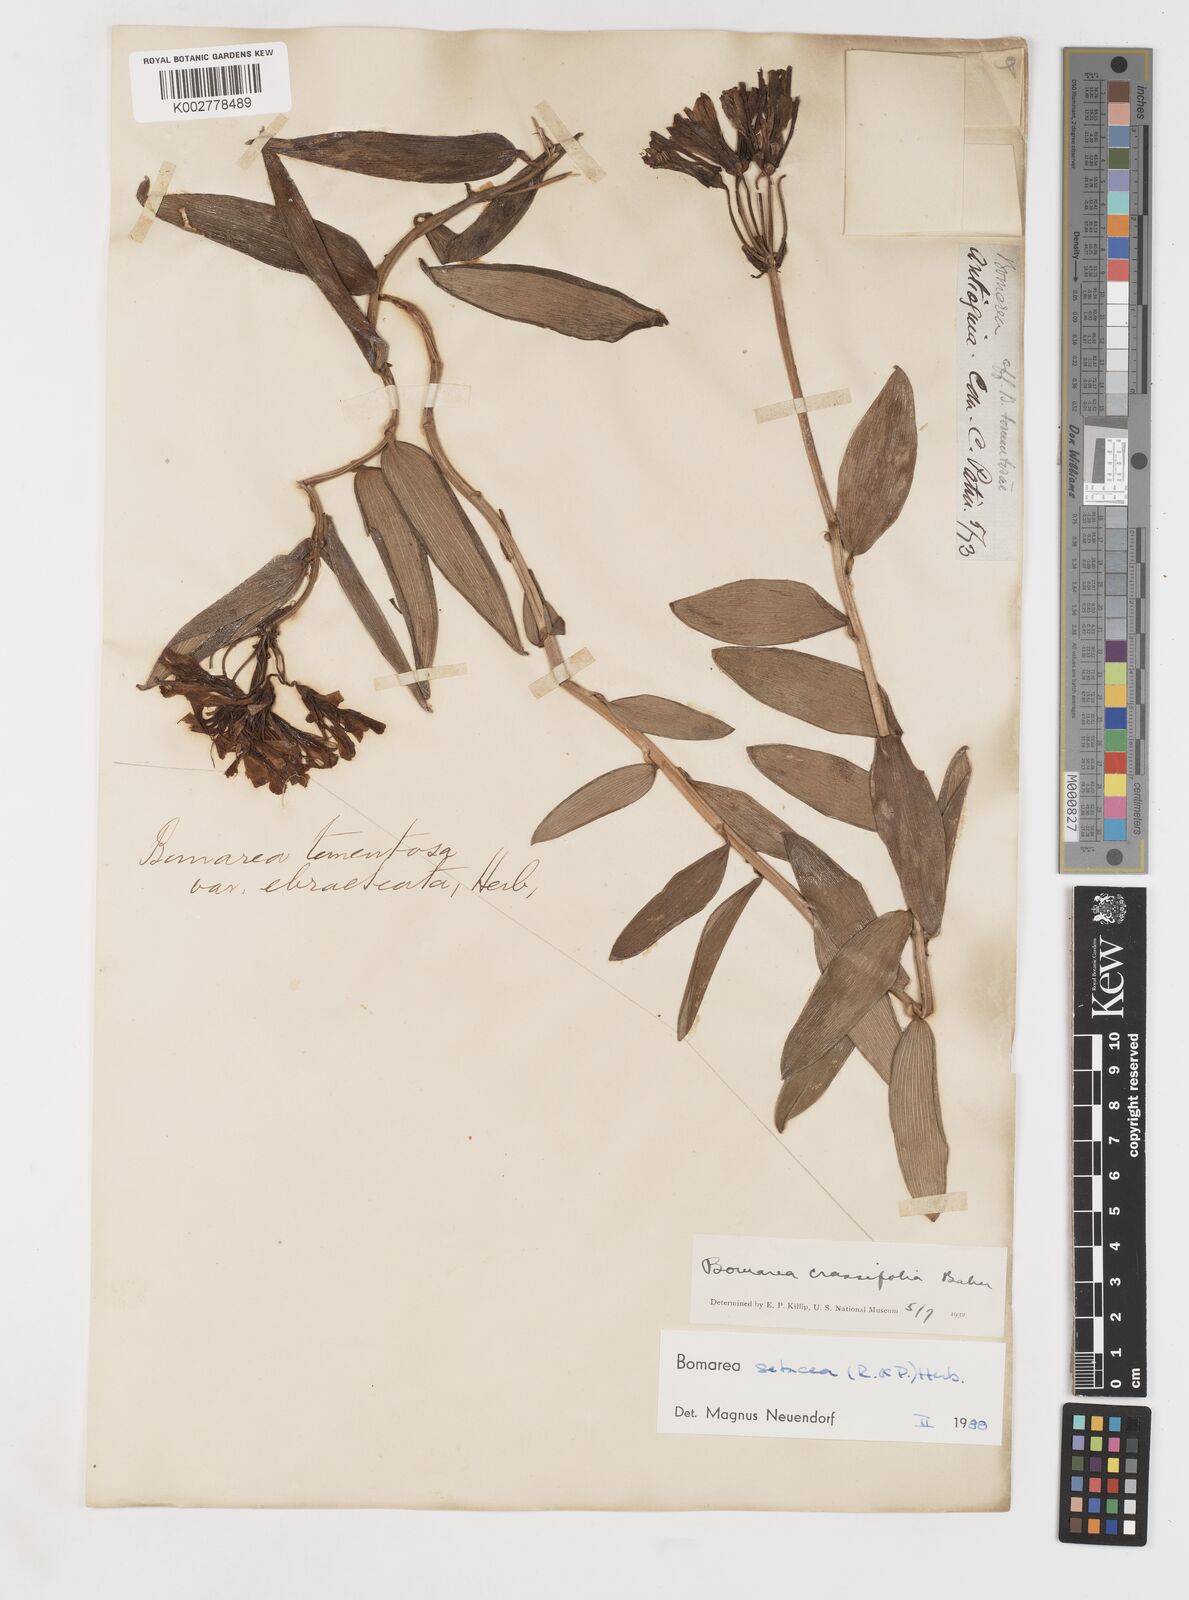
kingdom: Plantae
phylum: Tracheophyta
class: Liliopsida
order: Liliales
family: Alstroemeriaceae
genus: Bomarea
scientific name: Bomarea setacea
